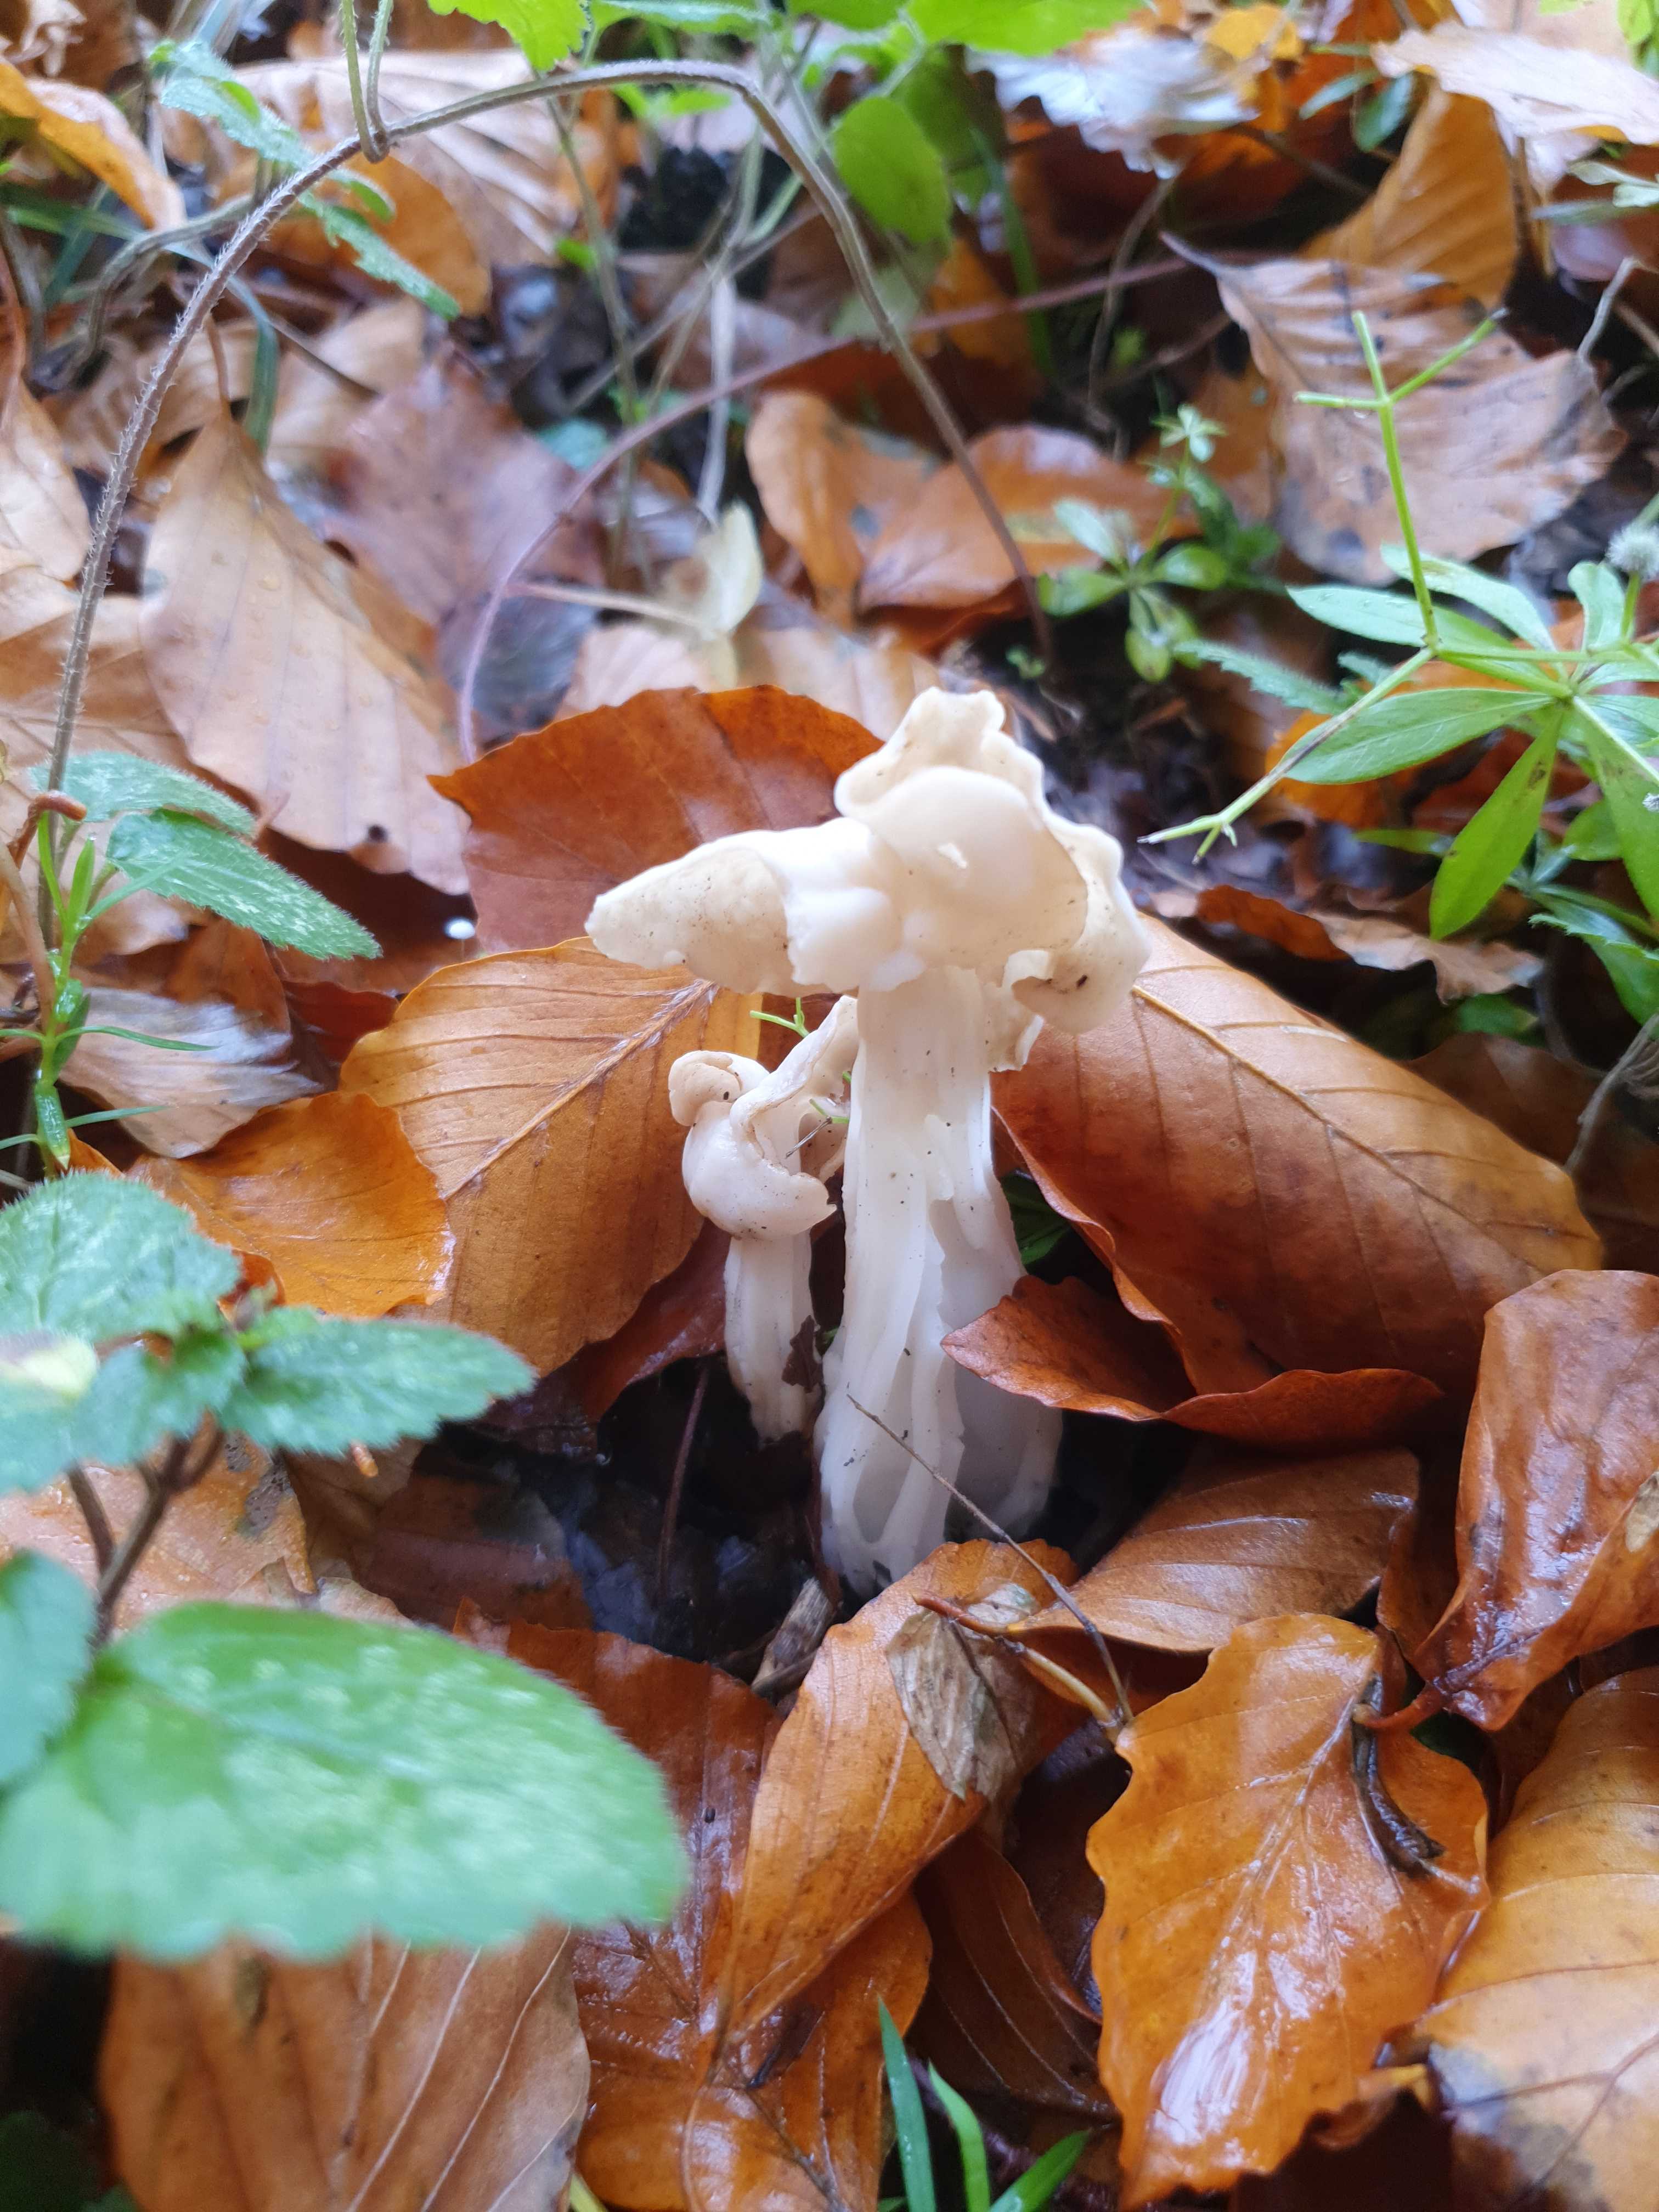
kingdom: Fungi
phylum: Ascomycota
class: Pezizomycetes
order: Pezizales
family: Helvellaceae
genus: Helvella
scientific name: Helvella crispa
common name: kruset foldhat
